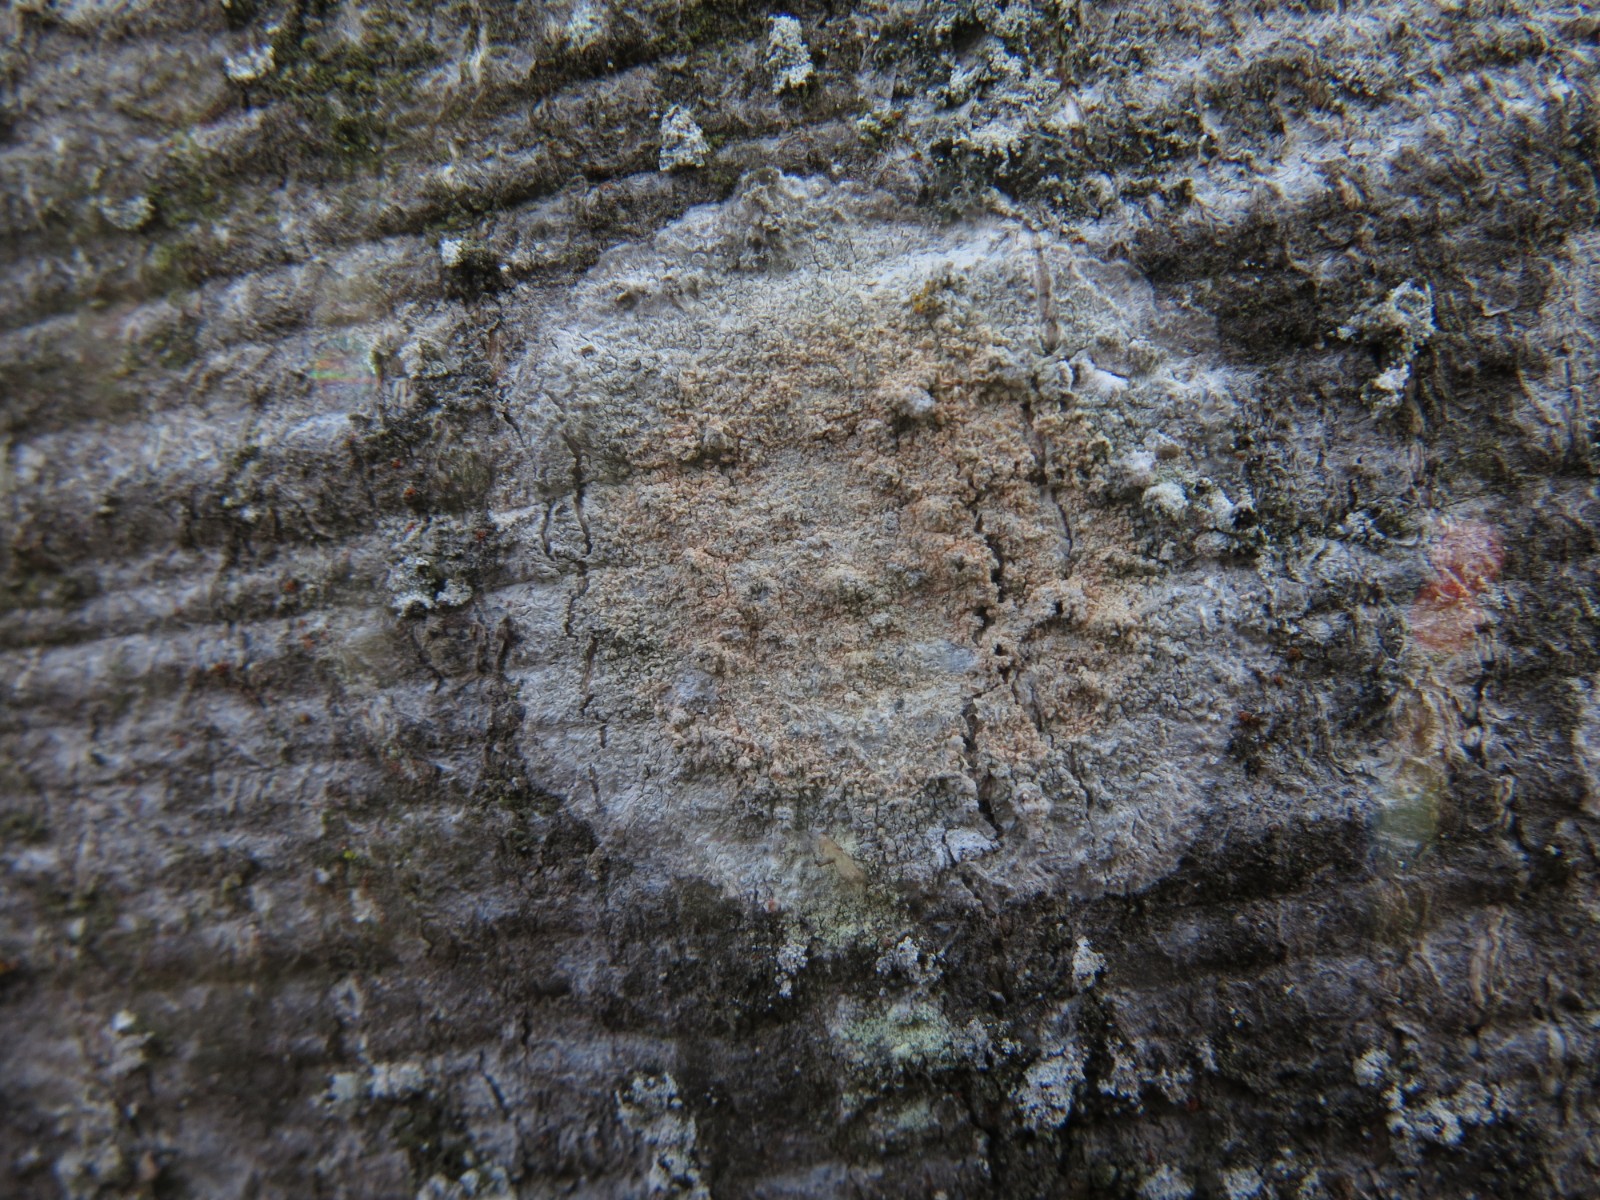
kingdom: Fungi
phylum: Ascomycota
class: Lecanoromycetes
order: Ostropales
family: Phlyctidaceae
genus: Phlyctis
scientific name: Phlyctis argena
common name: almindelig sølvlav
